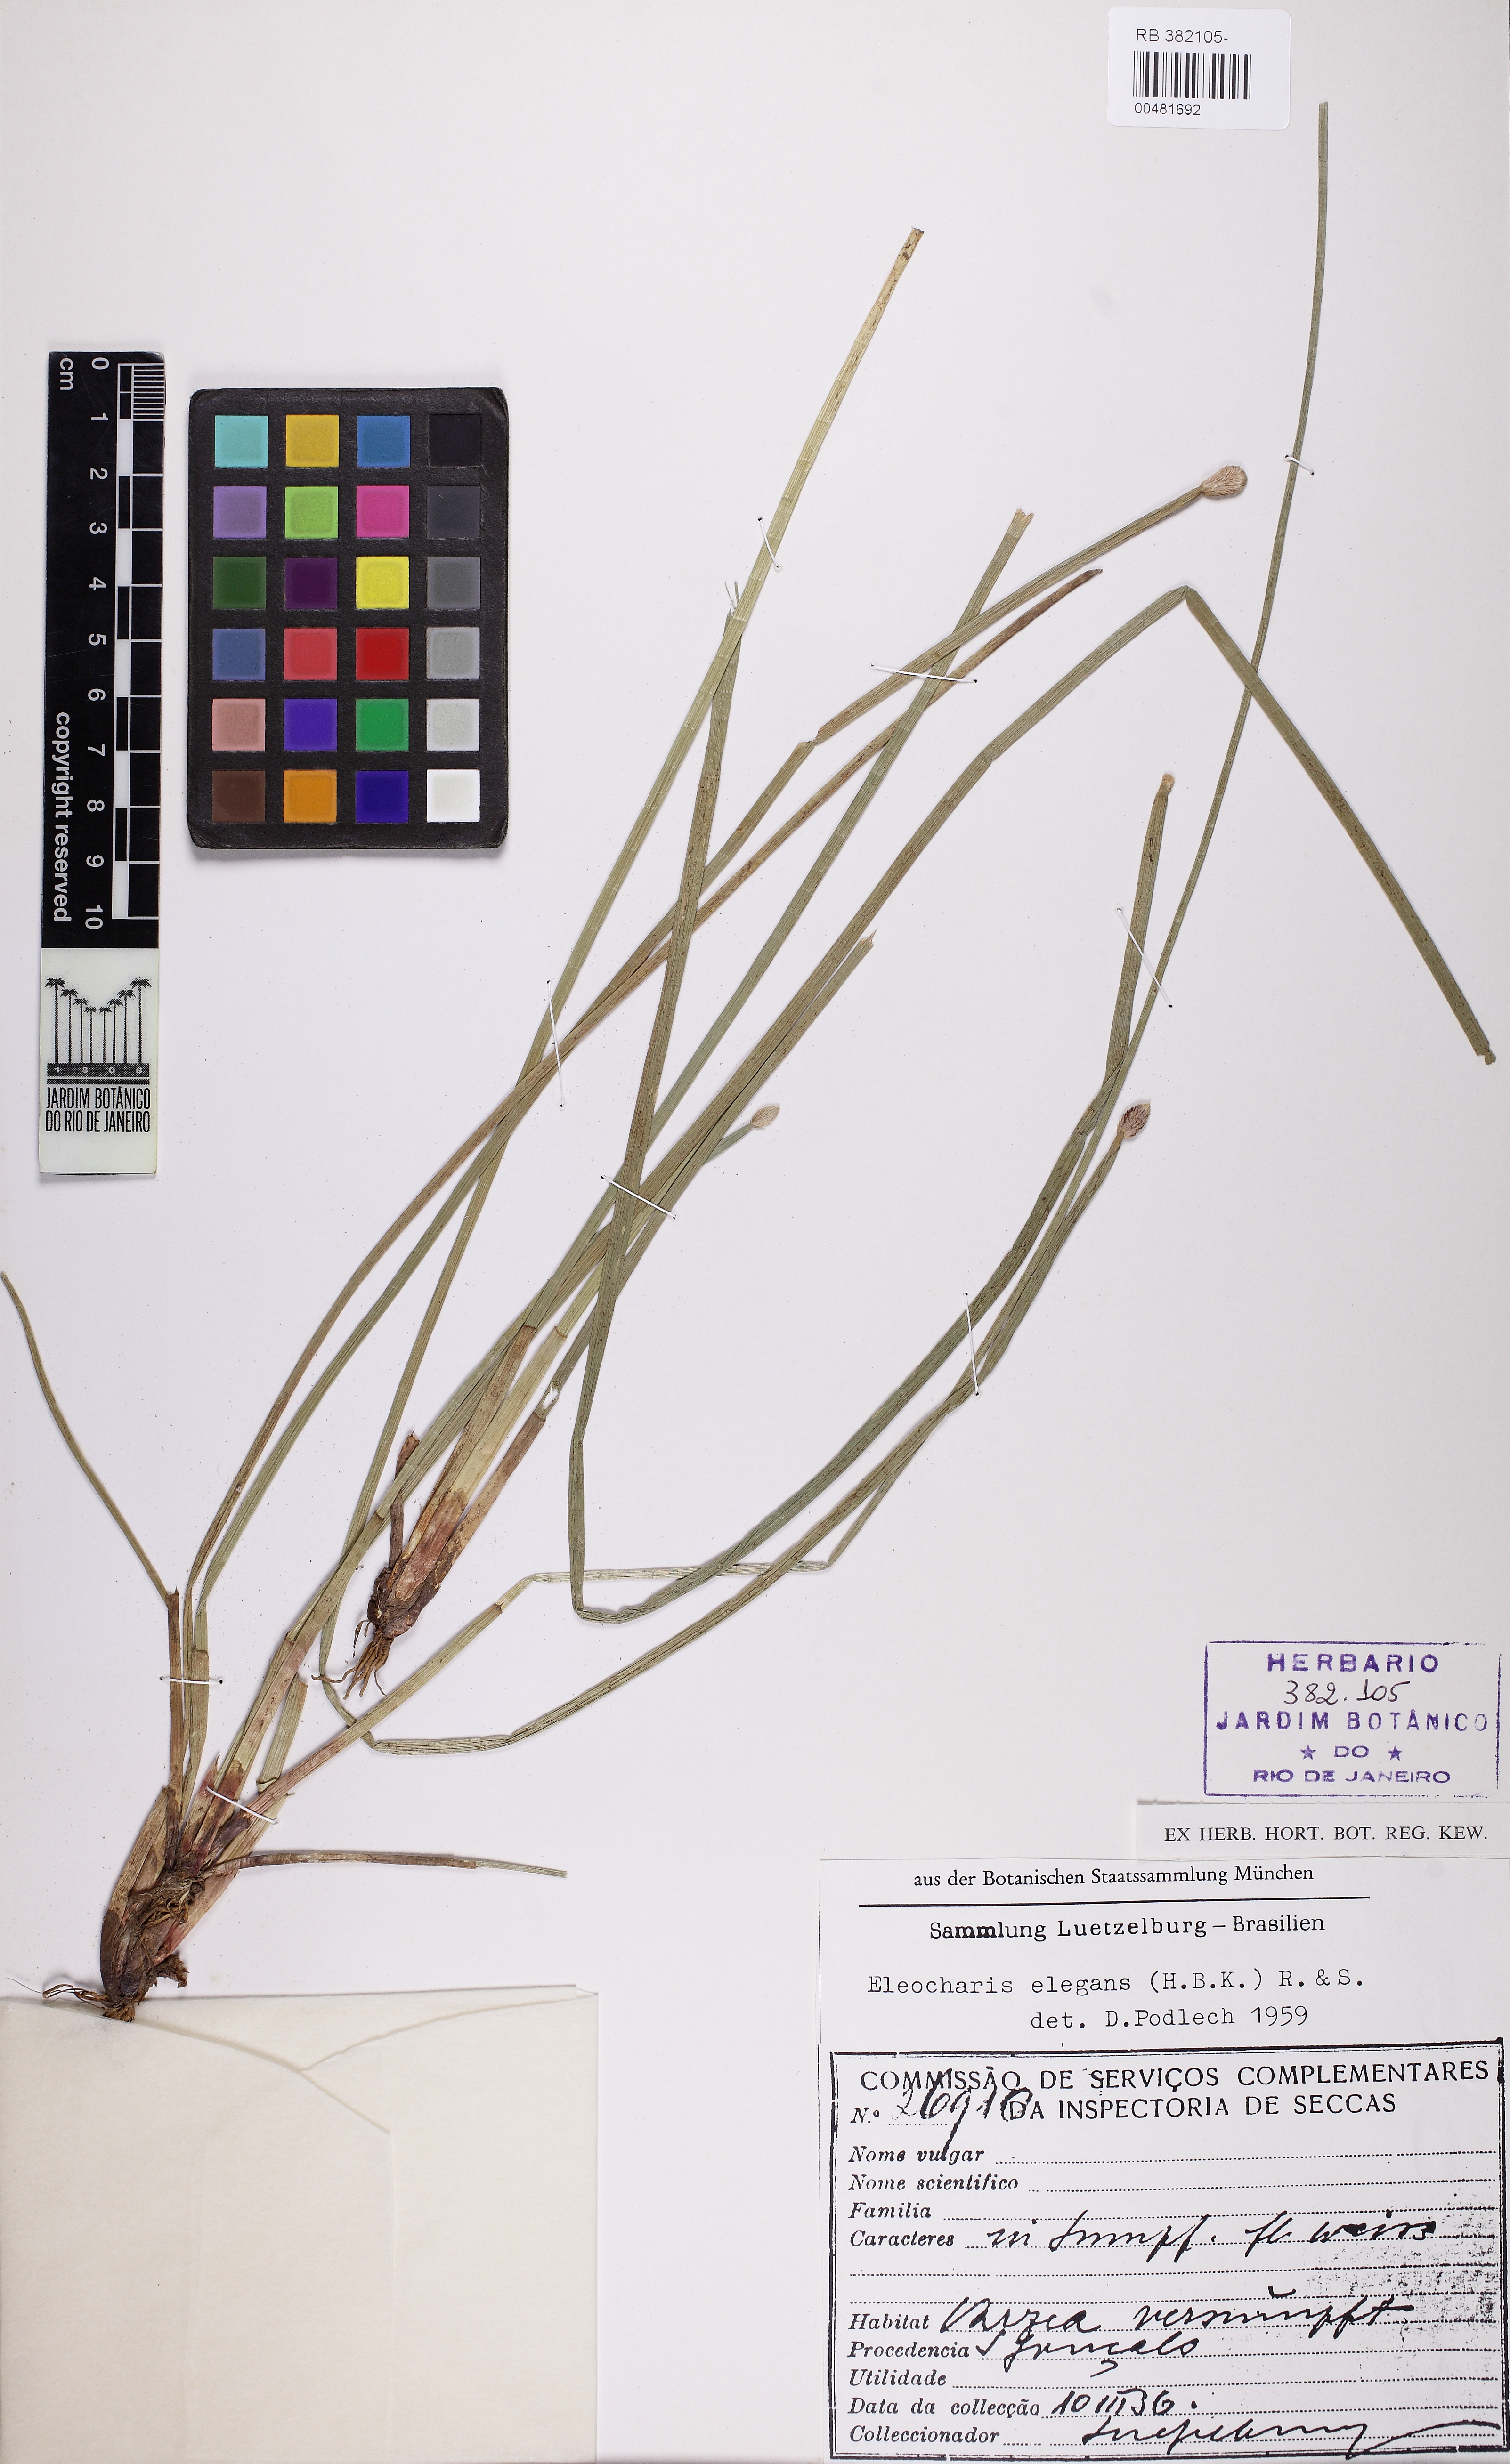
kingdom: Plantae
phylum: Tracheophyta
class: Liliopsida
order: Poales
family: Cyperaceae
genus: Eleocharis
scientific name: Eleocharis elegans
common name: Elegant spike-rush
